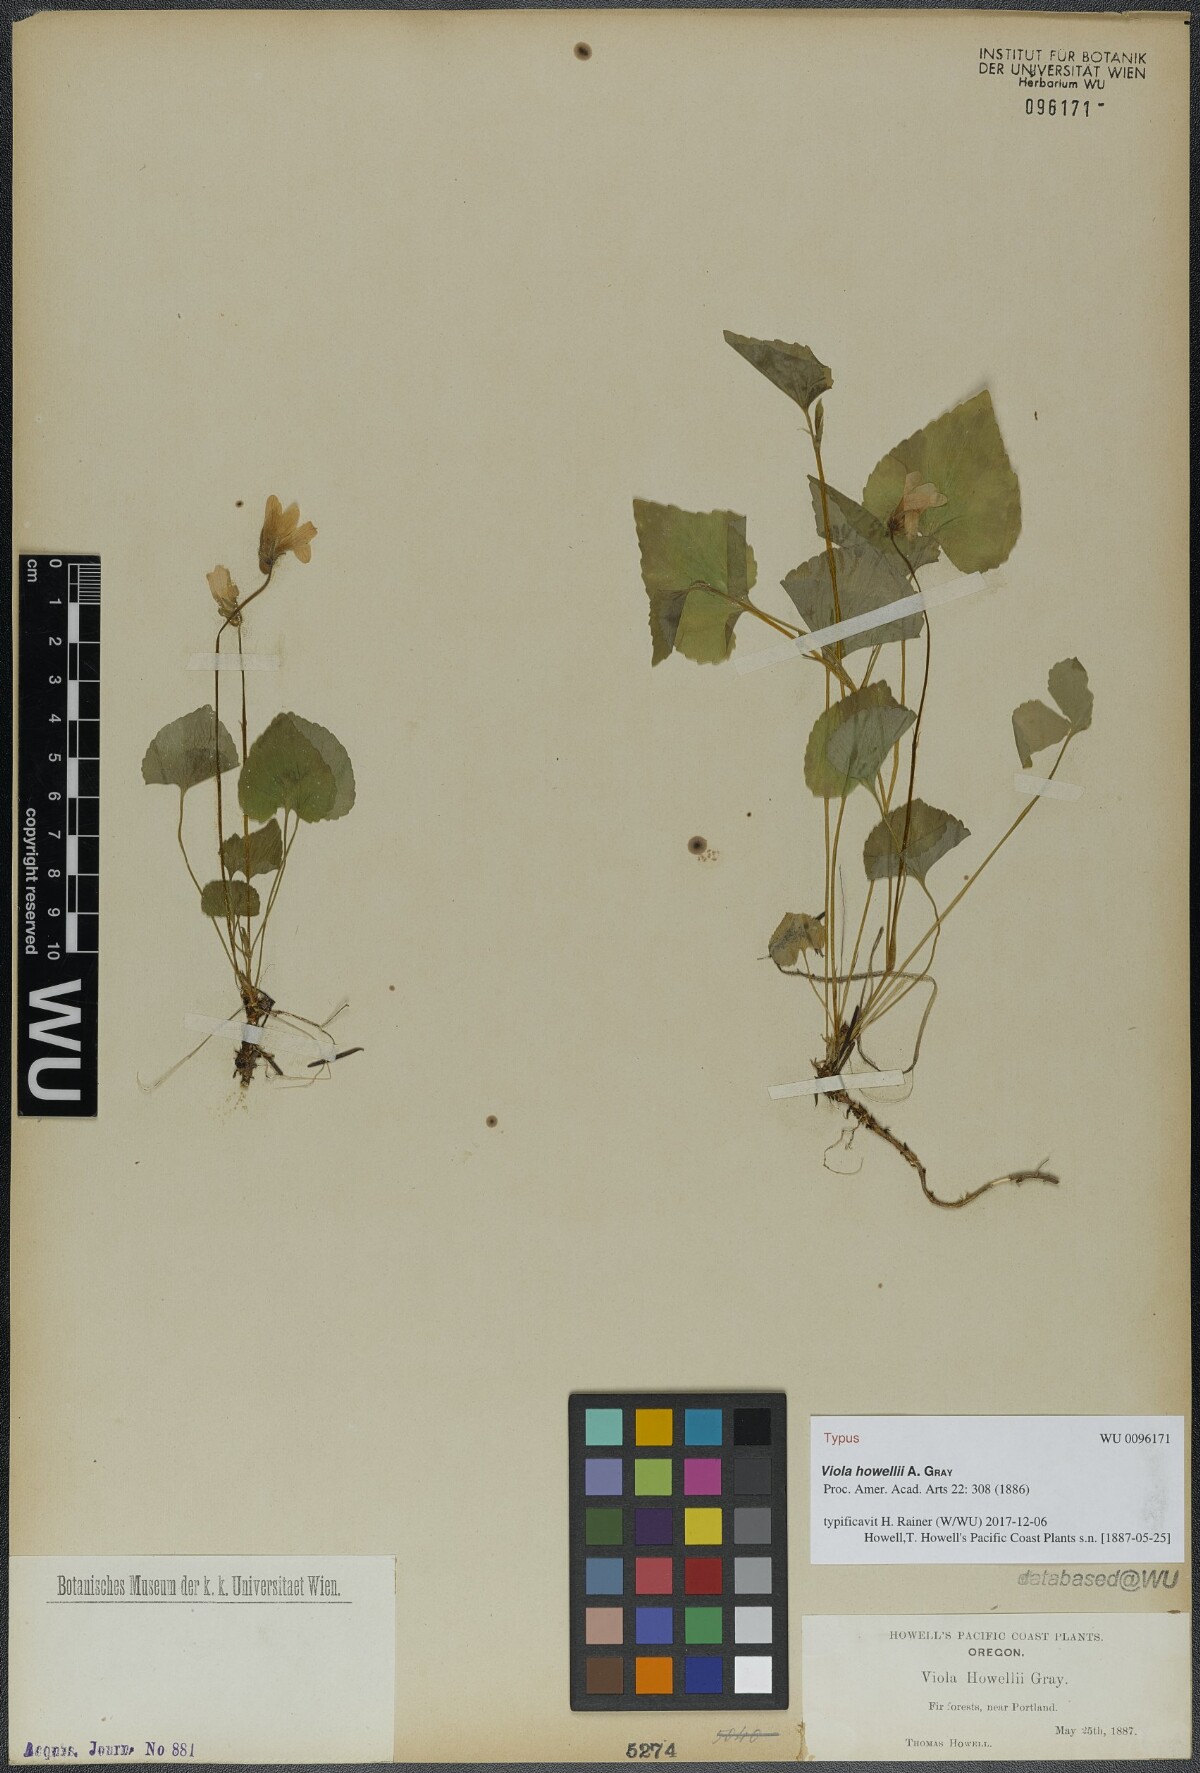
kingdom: Plantae
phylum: Tracheophyta
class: Magnoliopsida
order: Malpighiales
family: Violaceae
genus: Viola
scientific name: Viola howellii
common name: Howell's violet
